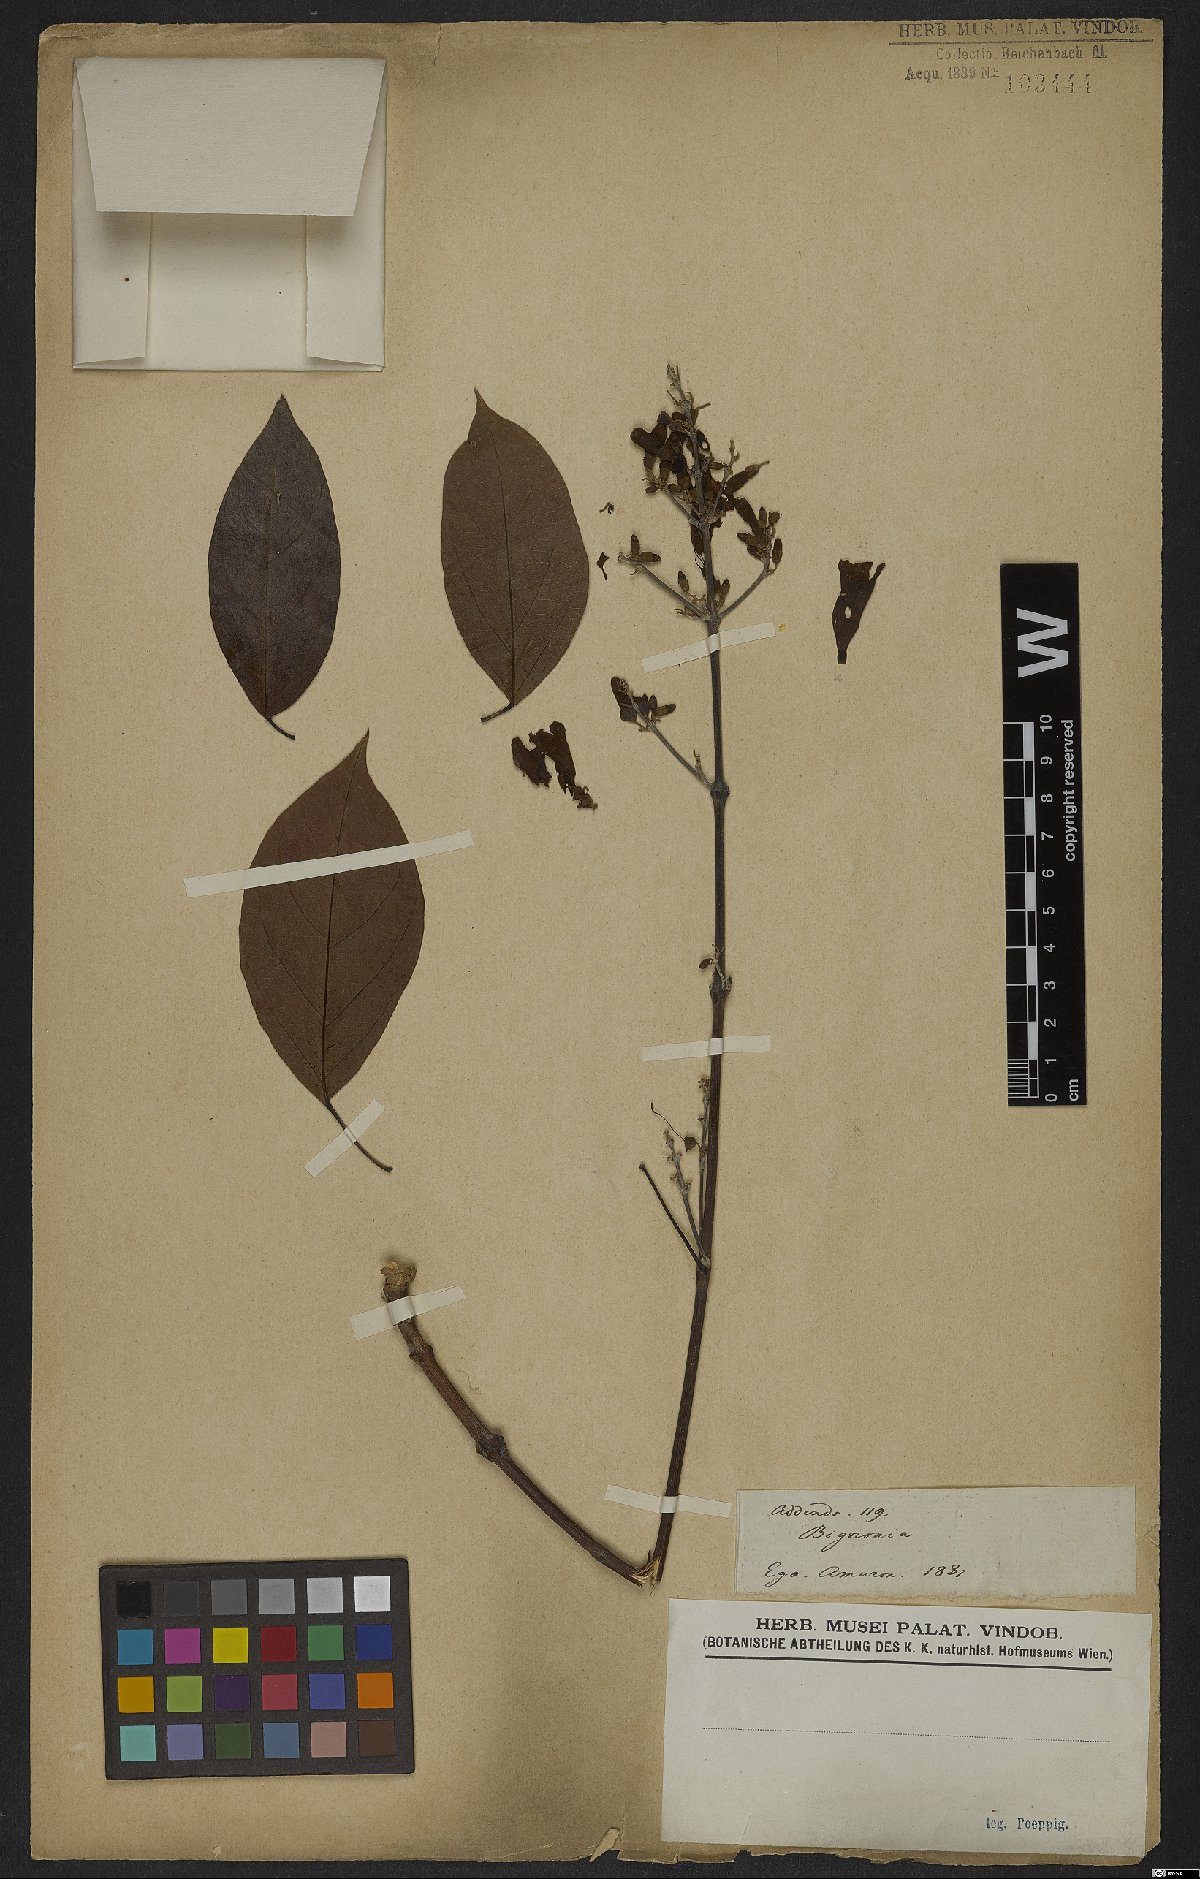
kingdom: Plantae
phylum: Tracheophyta
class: Magnoliopsida
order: Rosales
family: Rhamnaceae
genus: Arrabidaea
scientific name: Arrabidaea
